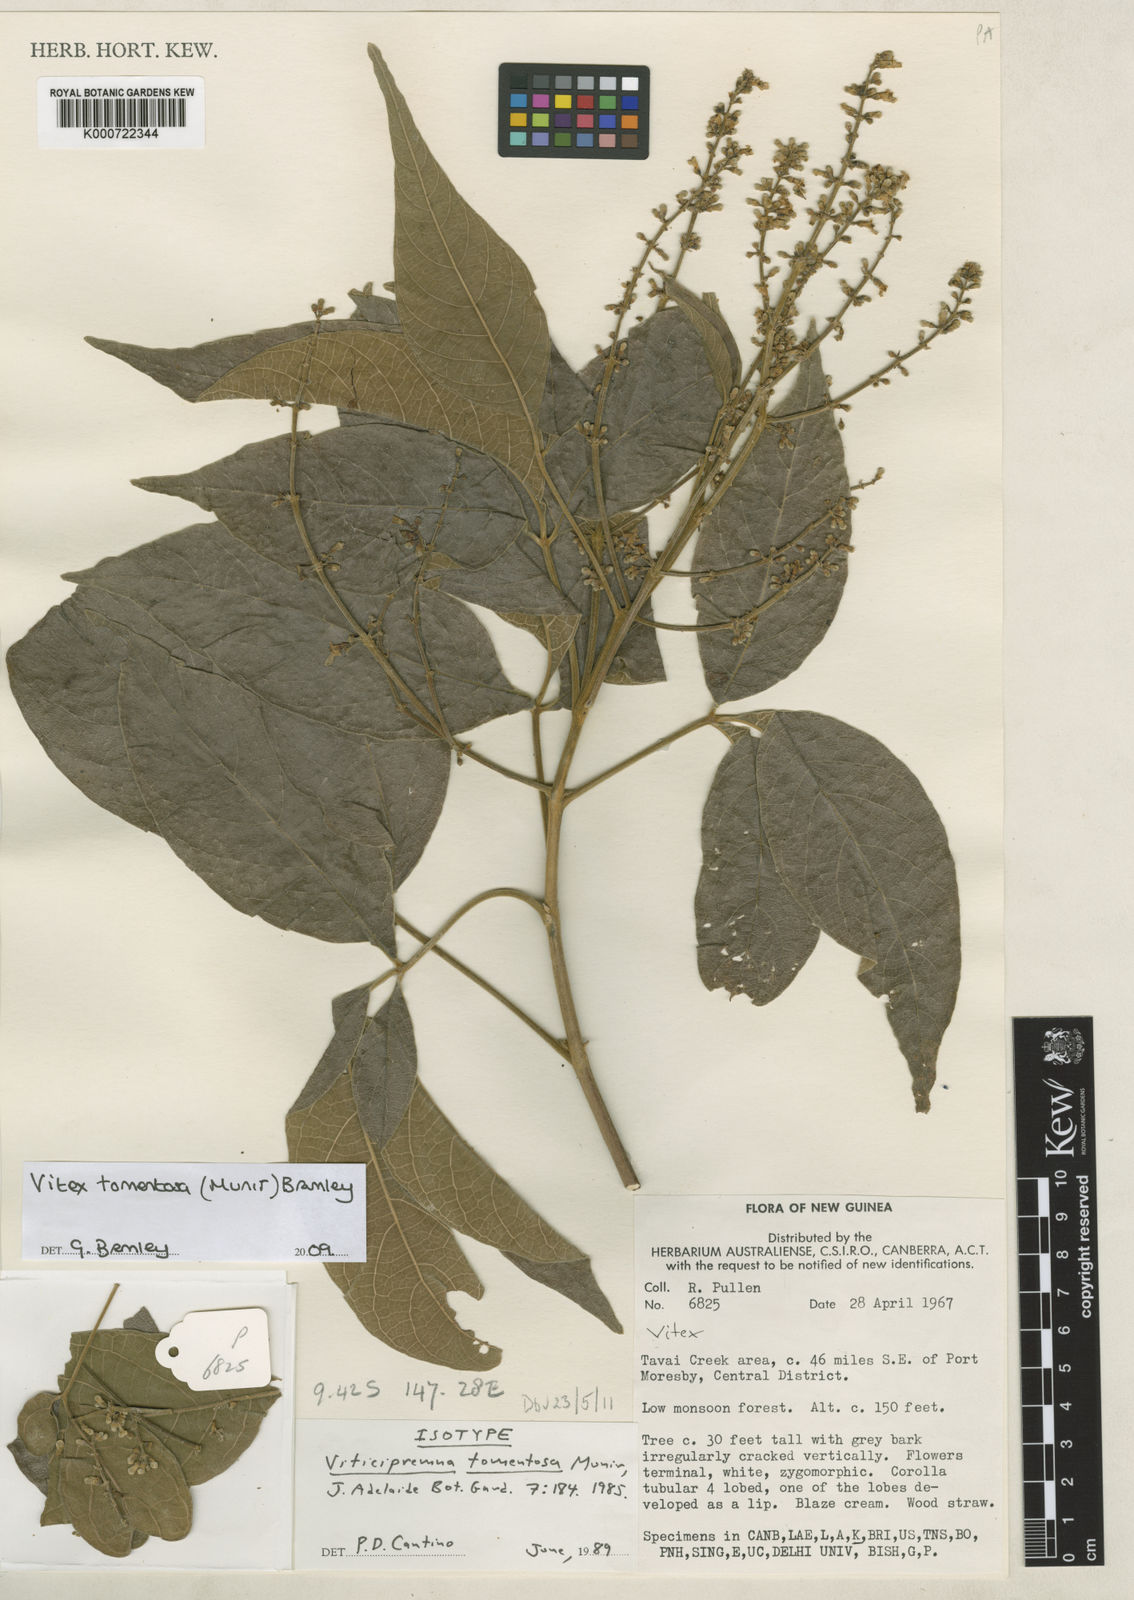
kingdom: Plantae
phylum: Tracheophyta
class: Magnoliopsida
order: Lamiales
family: Lamiaceae
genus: Vitex
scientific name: Vitex tomentosa
